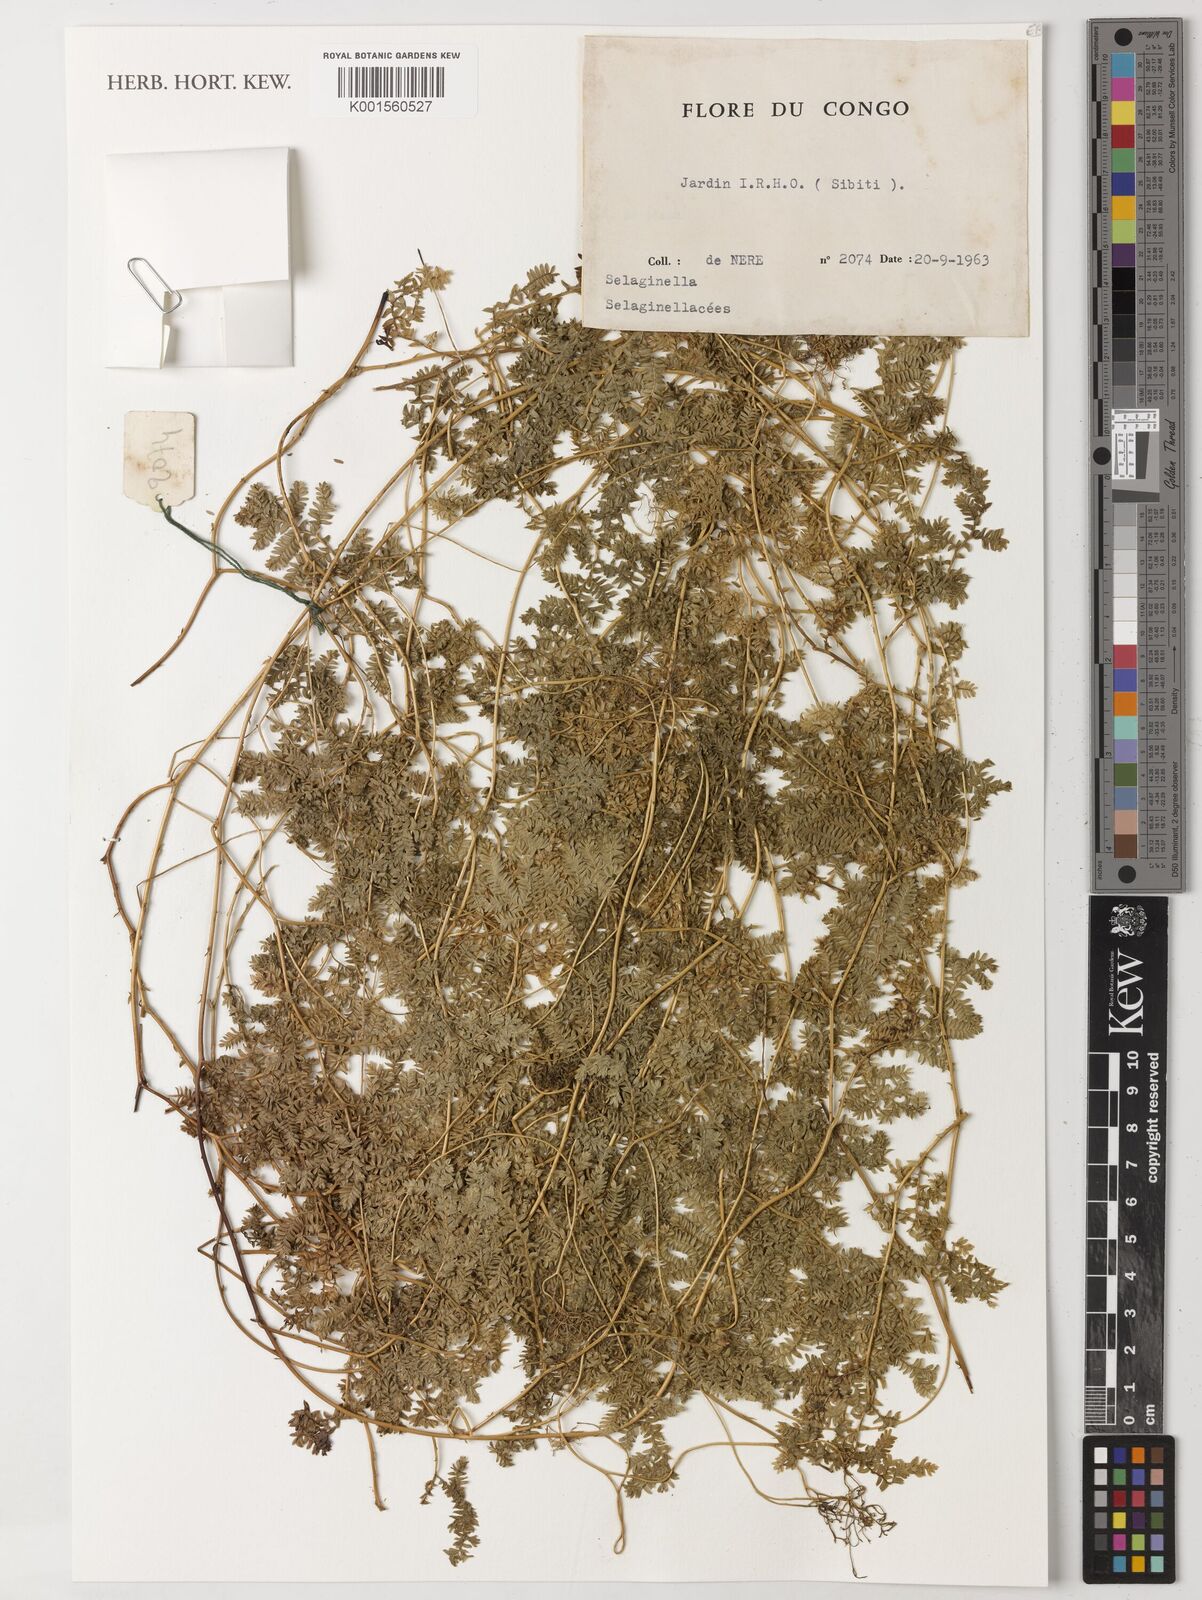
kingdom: Plantae
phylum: Tracheophyta
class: Lycopodiopsida
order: Selaginellales
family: Selaginellaceae
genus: Selaginella
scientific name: Selaginella
